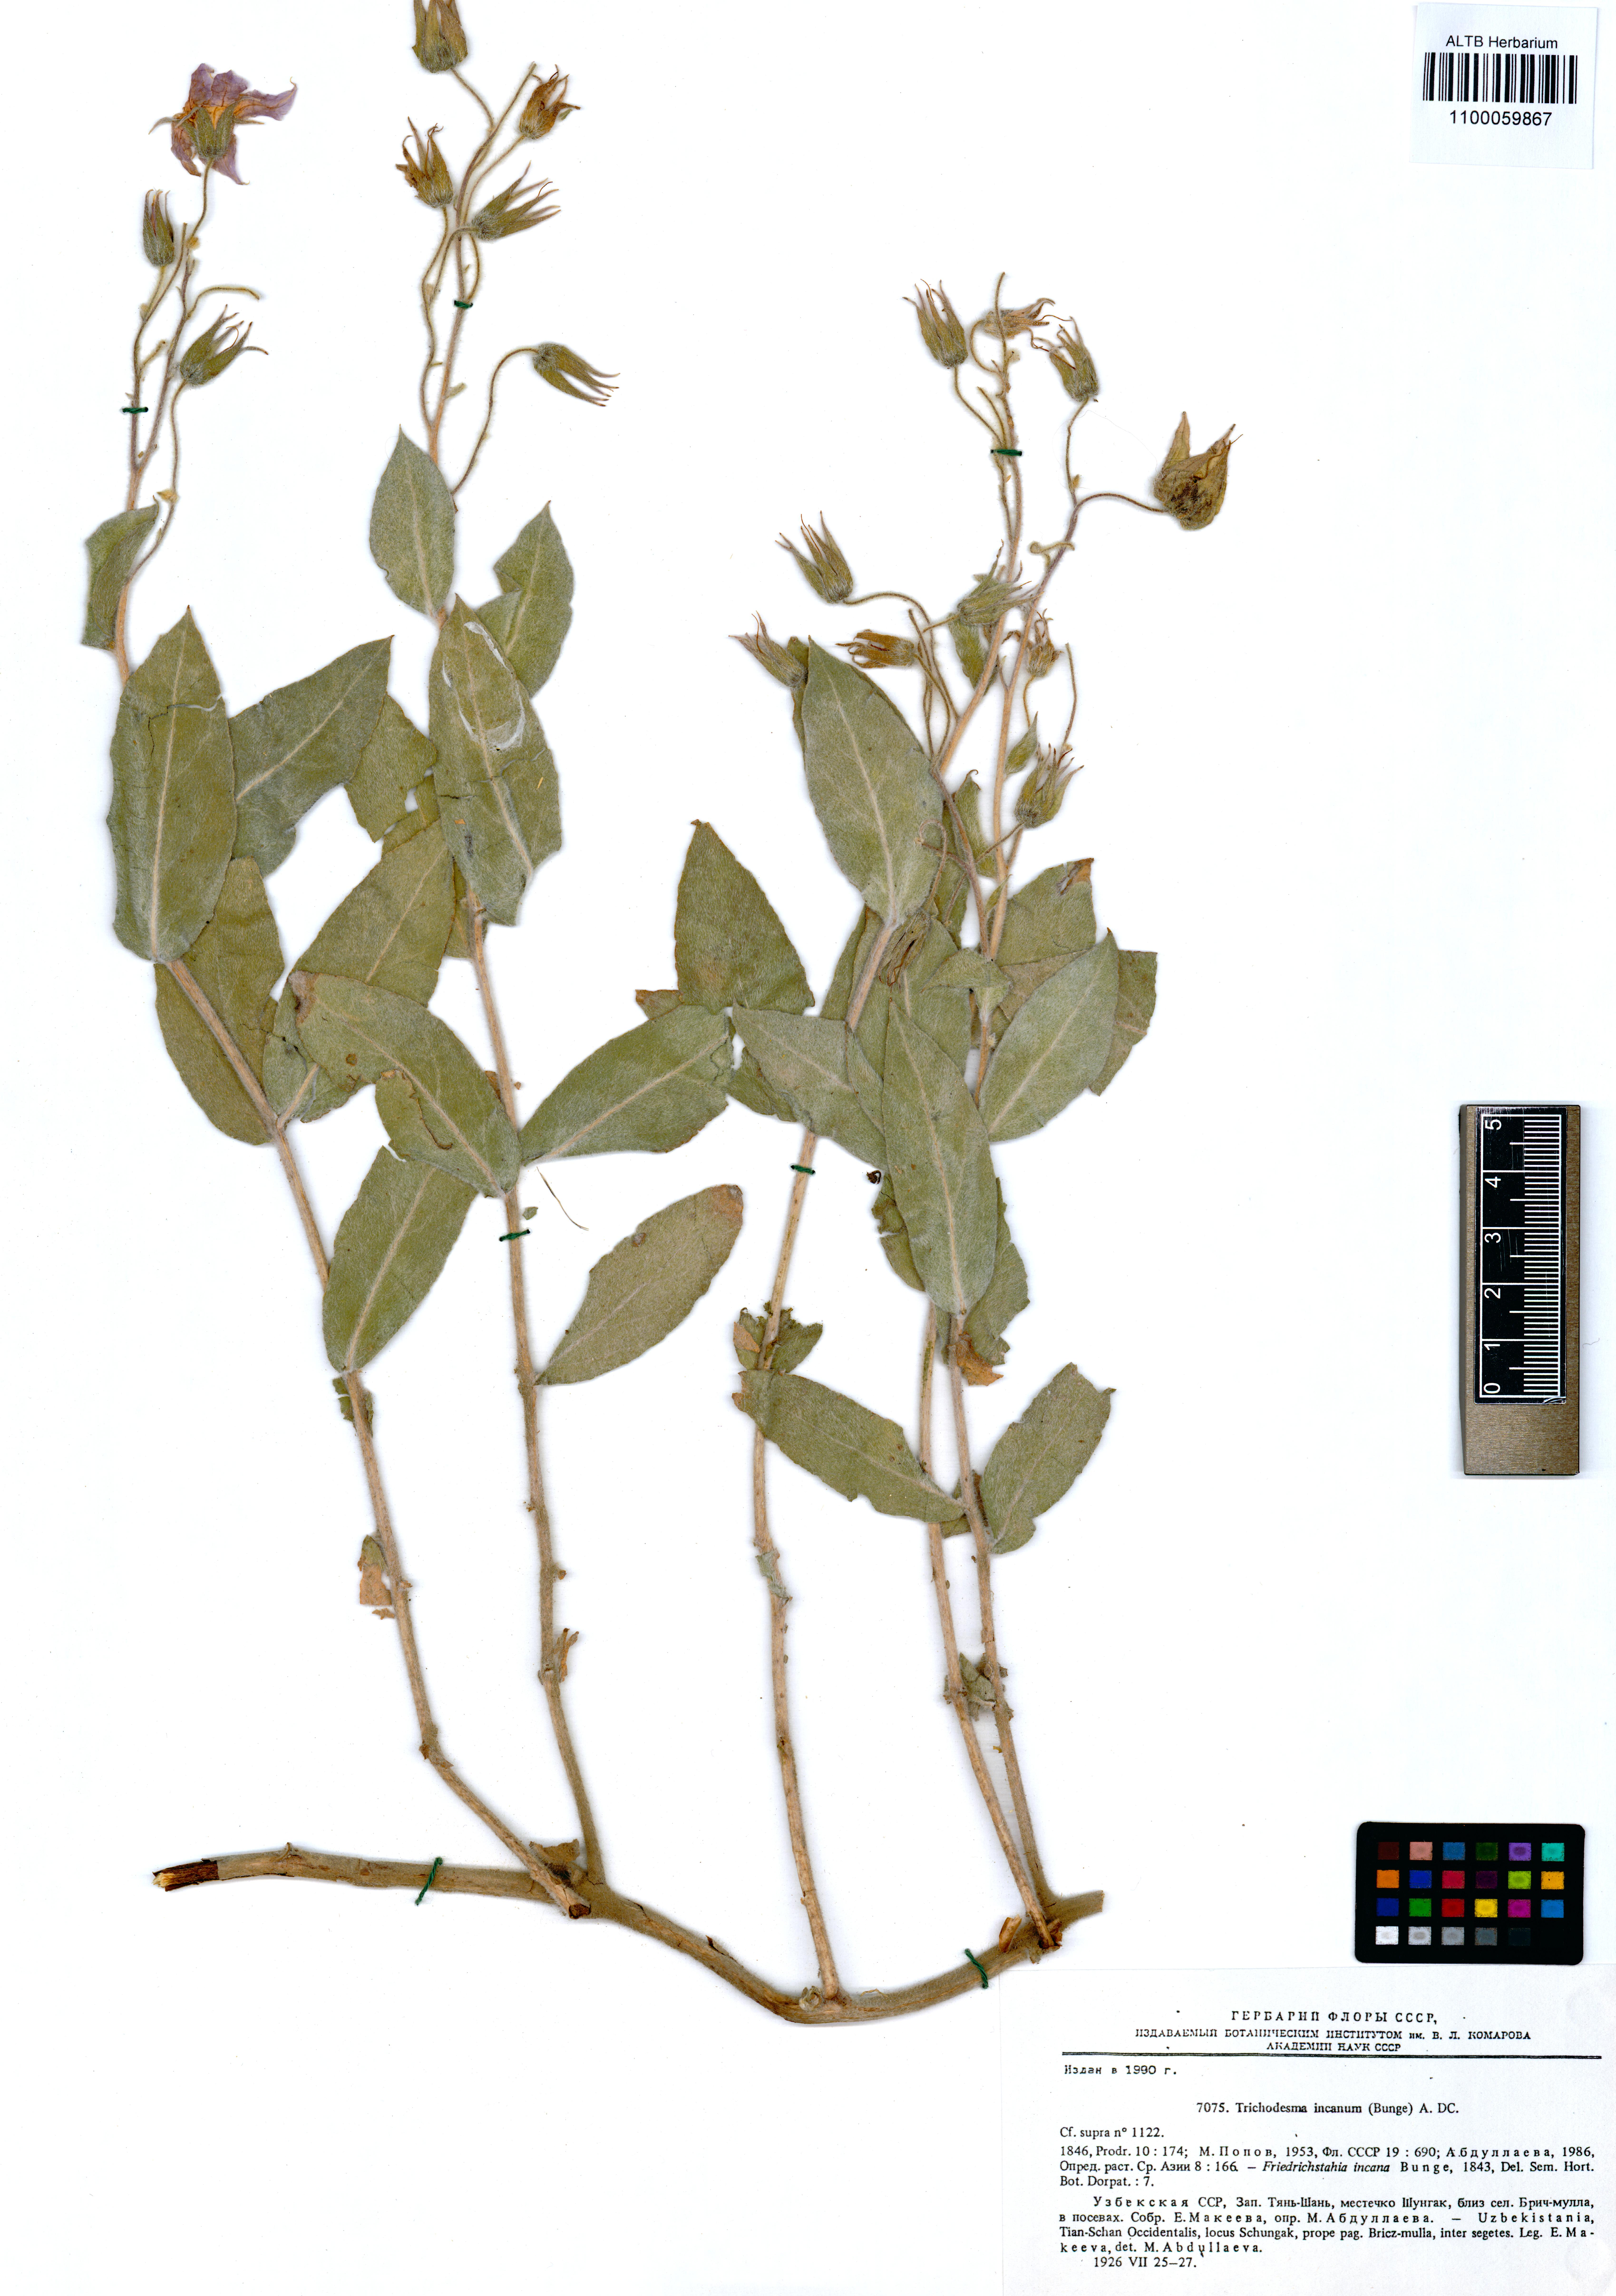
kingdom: Plantae
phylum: Tracheophyta
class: Magnoliopsida
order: Boraginales
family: Boraginaceae
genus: Trichodesma
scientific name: Trichodesma incanum
